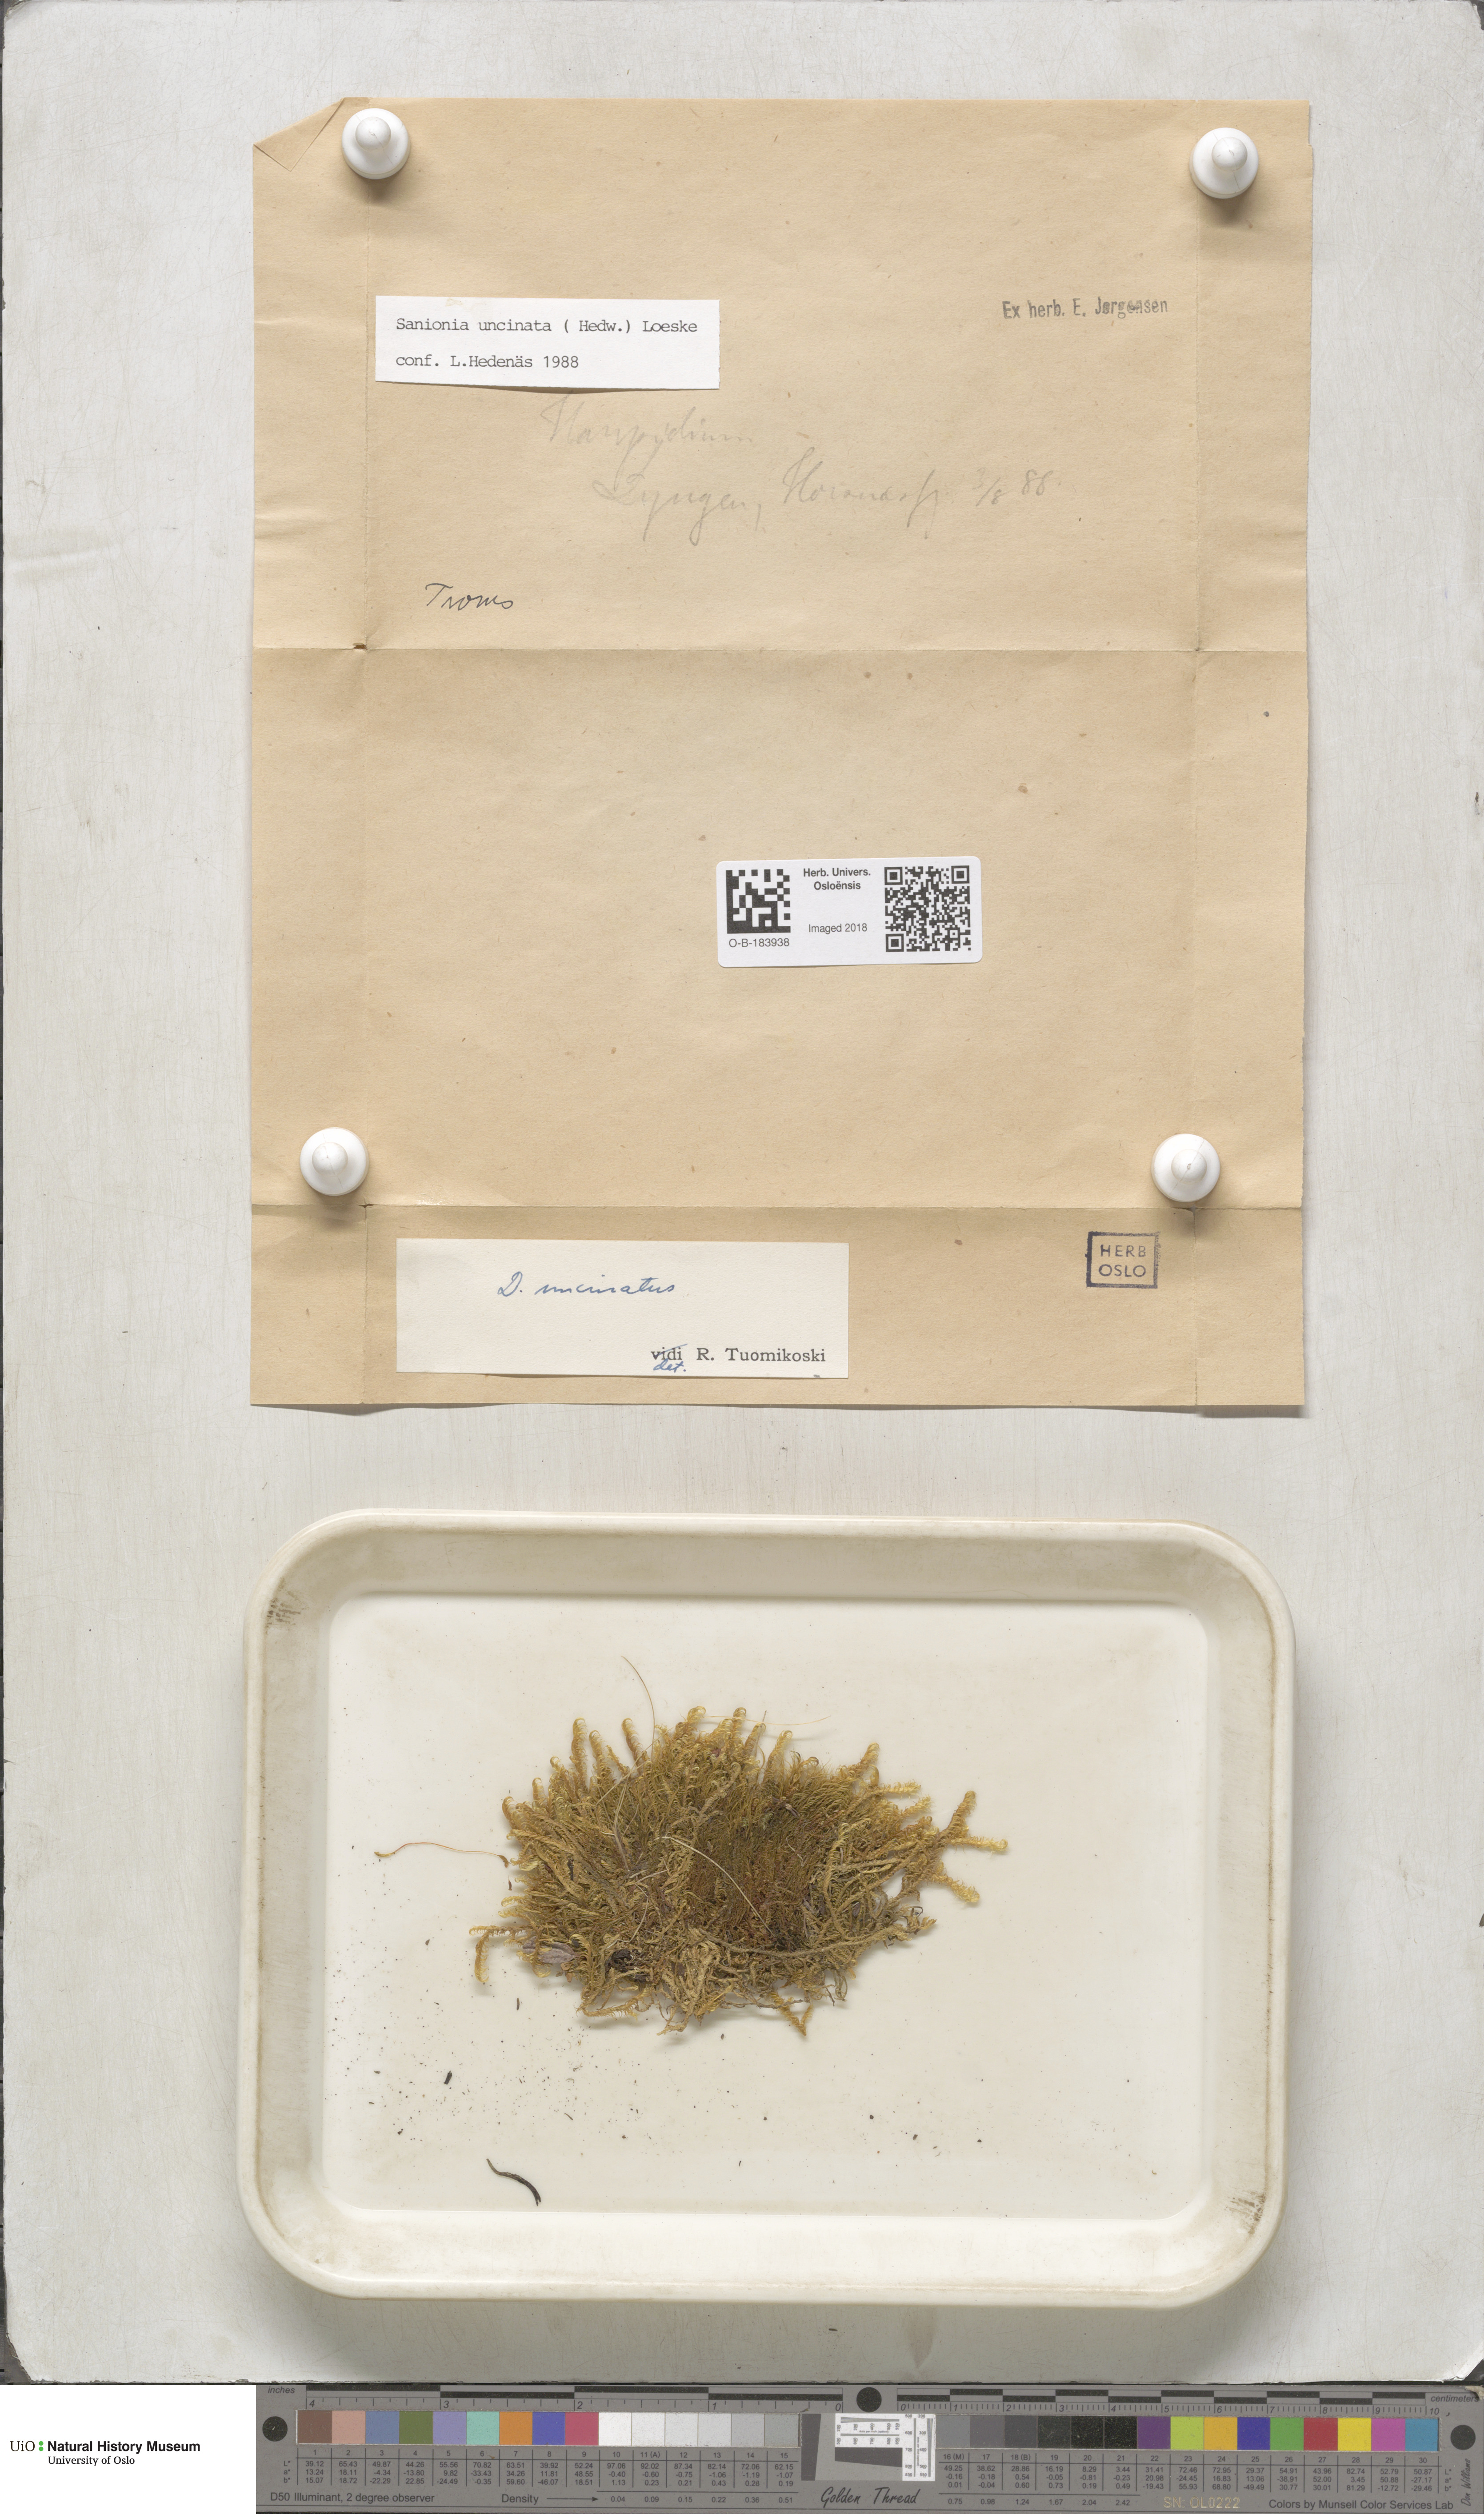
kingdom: Plantae
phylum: Bryophyta
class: Bryopsida
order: Hypnales
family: Scorpidiaceae
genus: Sanionia
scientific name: Sanionia uncinata
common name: Sickle moss
